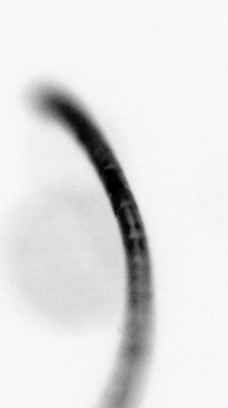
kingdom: Chromista
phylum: Ochrophyta
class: Bacillariophyceae
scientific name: Bacillariophyceae
